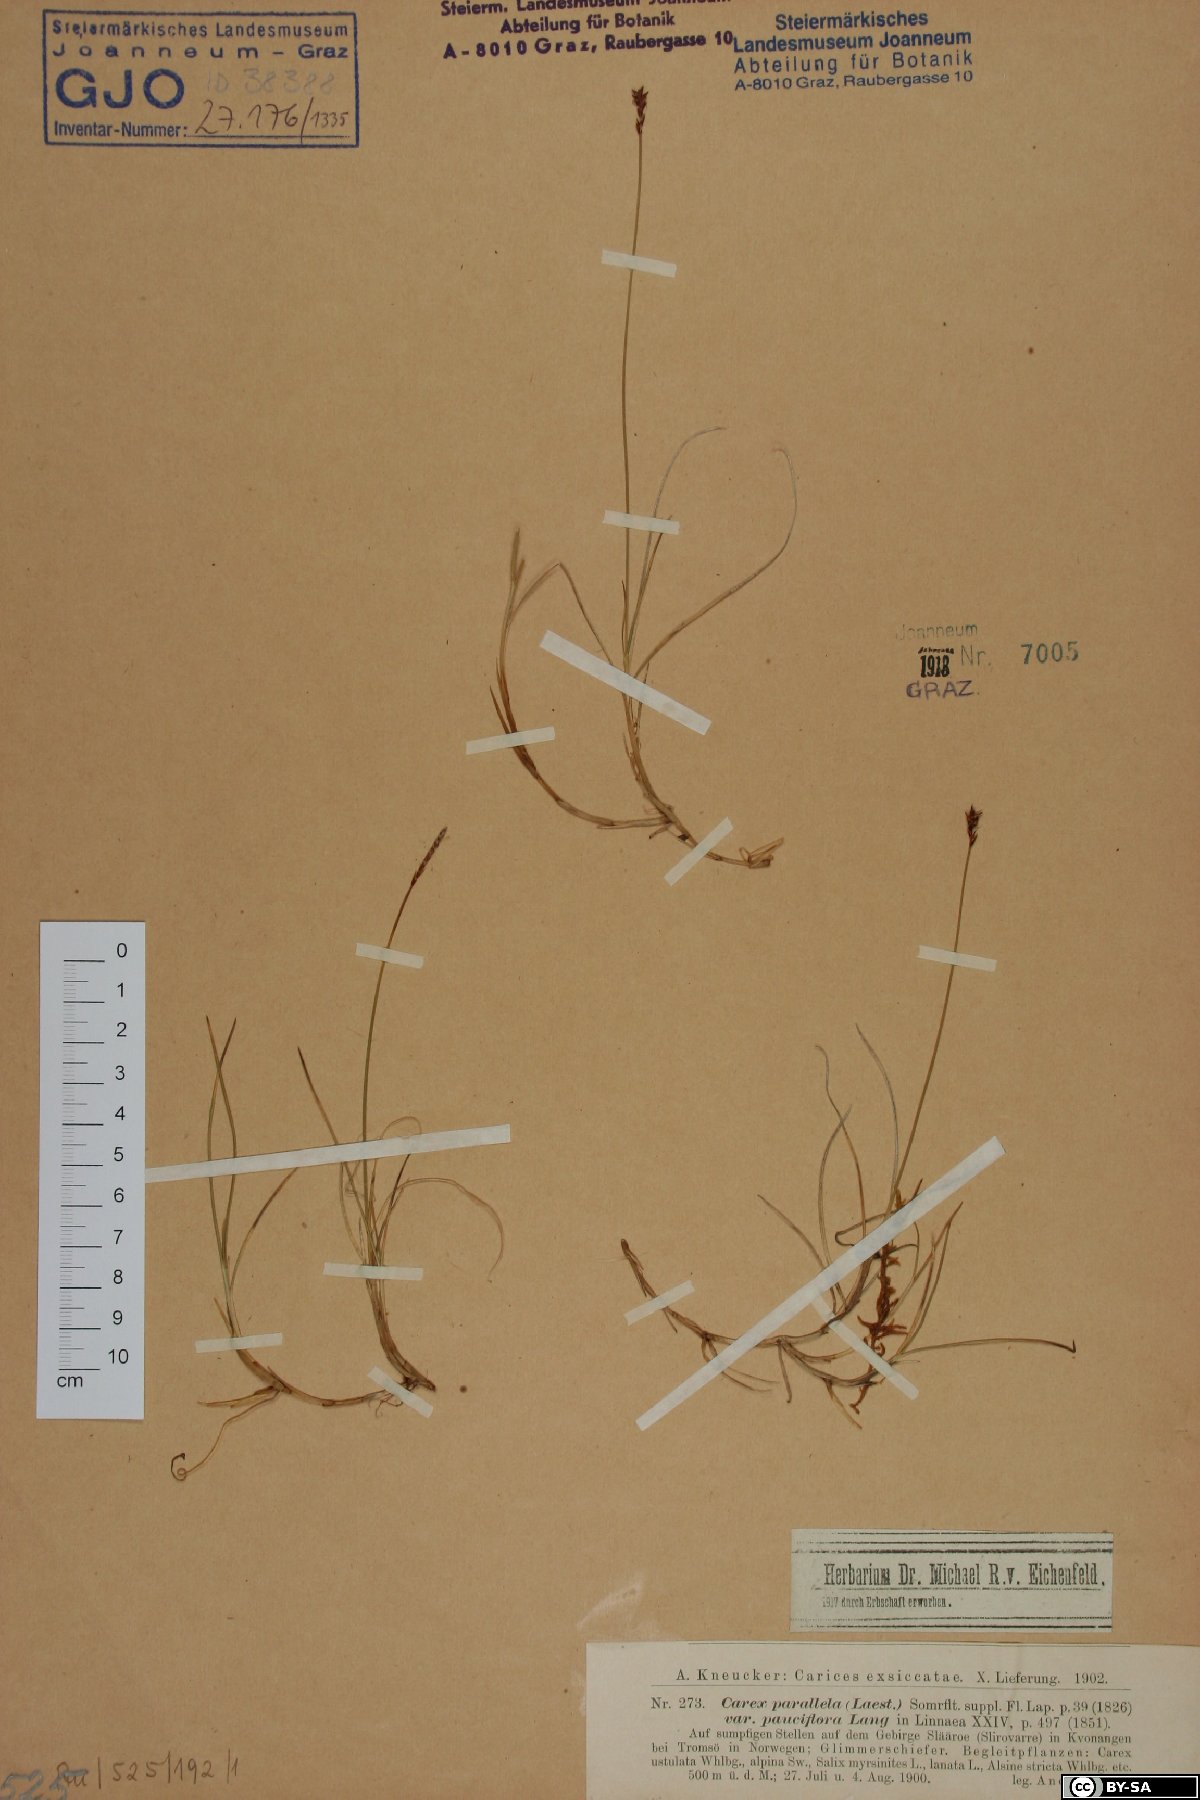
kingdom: Plantae
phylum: Tracheophyta
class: Liliopsida
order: Poales
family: Cyperaceae
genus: Carex
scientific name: Carex parallela
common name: Parallel sedge
